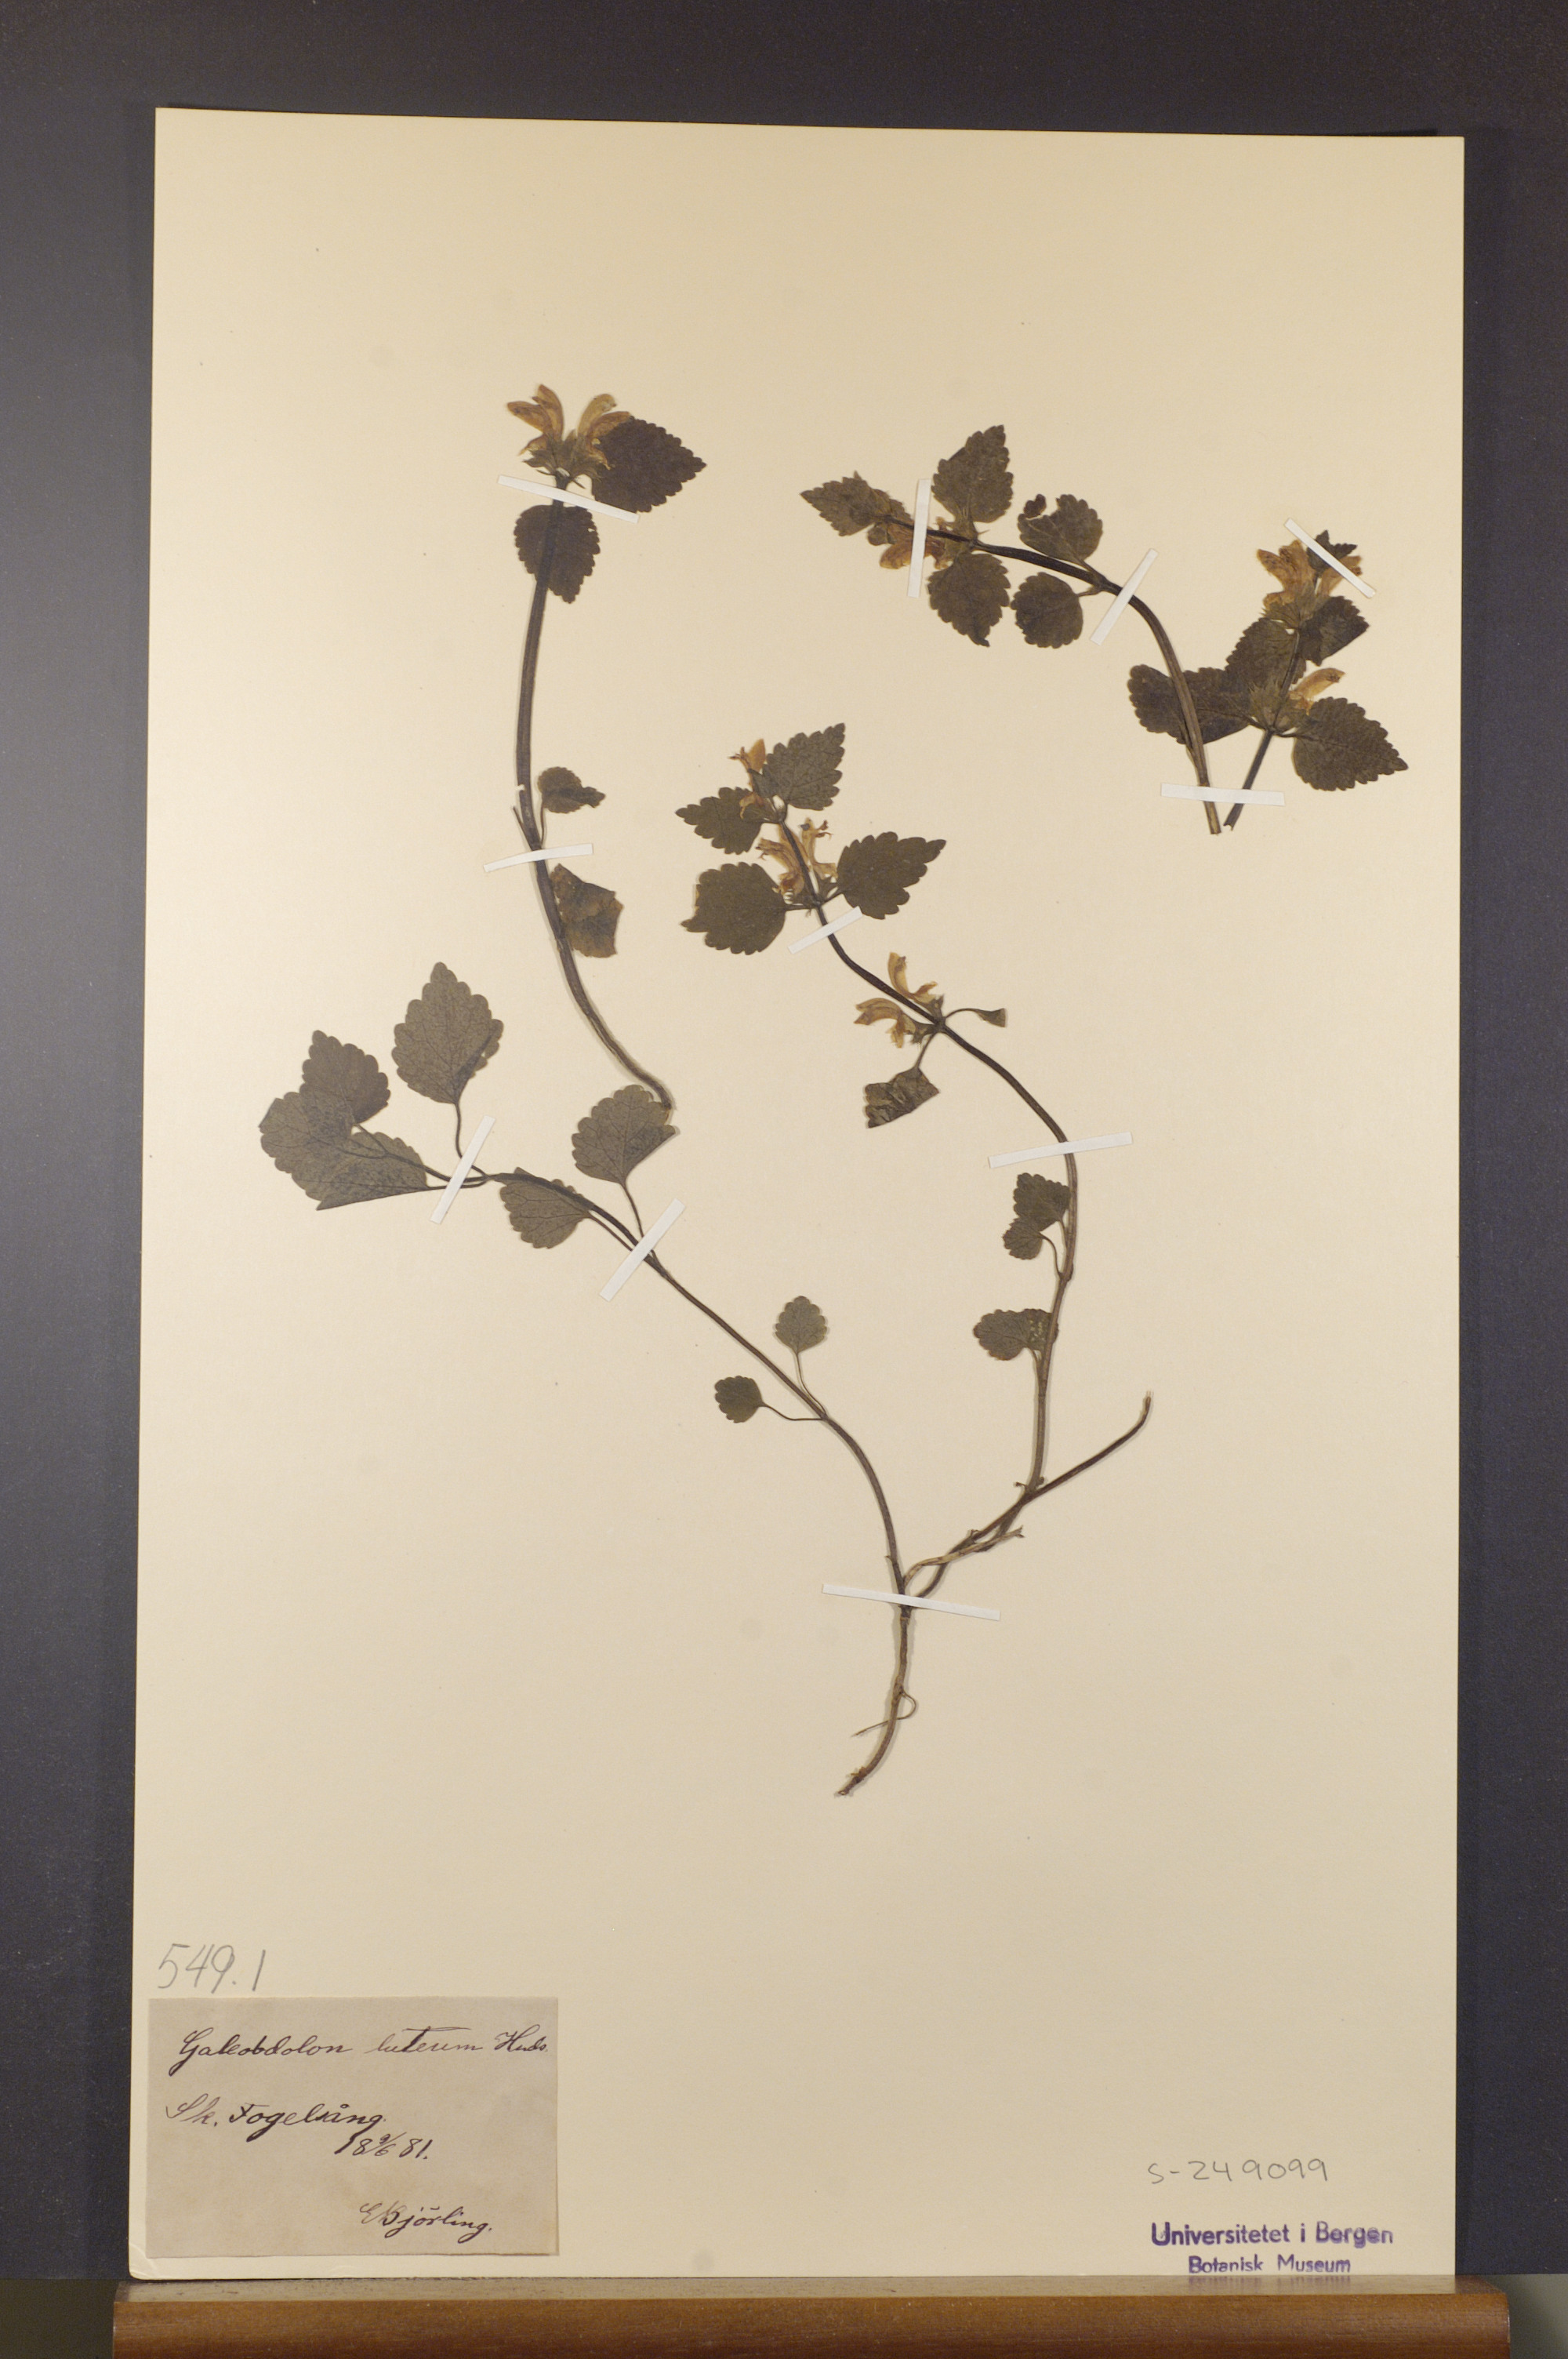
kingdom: Plantae
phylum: Tracheophyta
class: Magnoliopsida
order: Lamiales
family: Lamiaceae
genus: Lamium
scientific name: Lamium galeobdolon
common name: Yellow archangel
